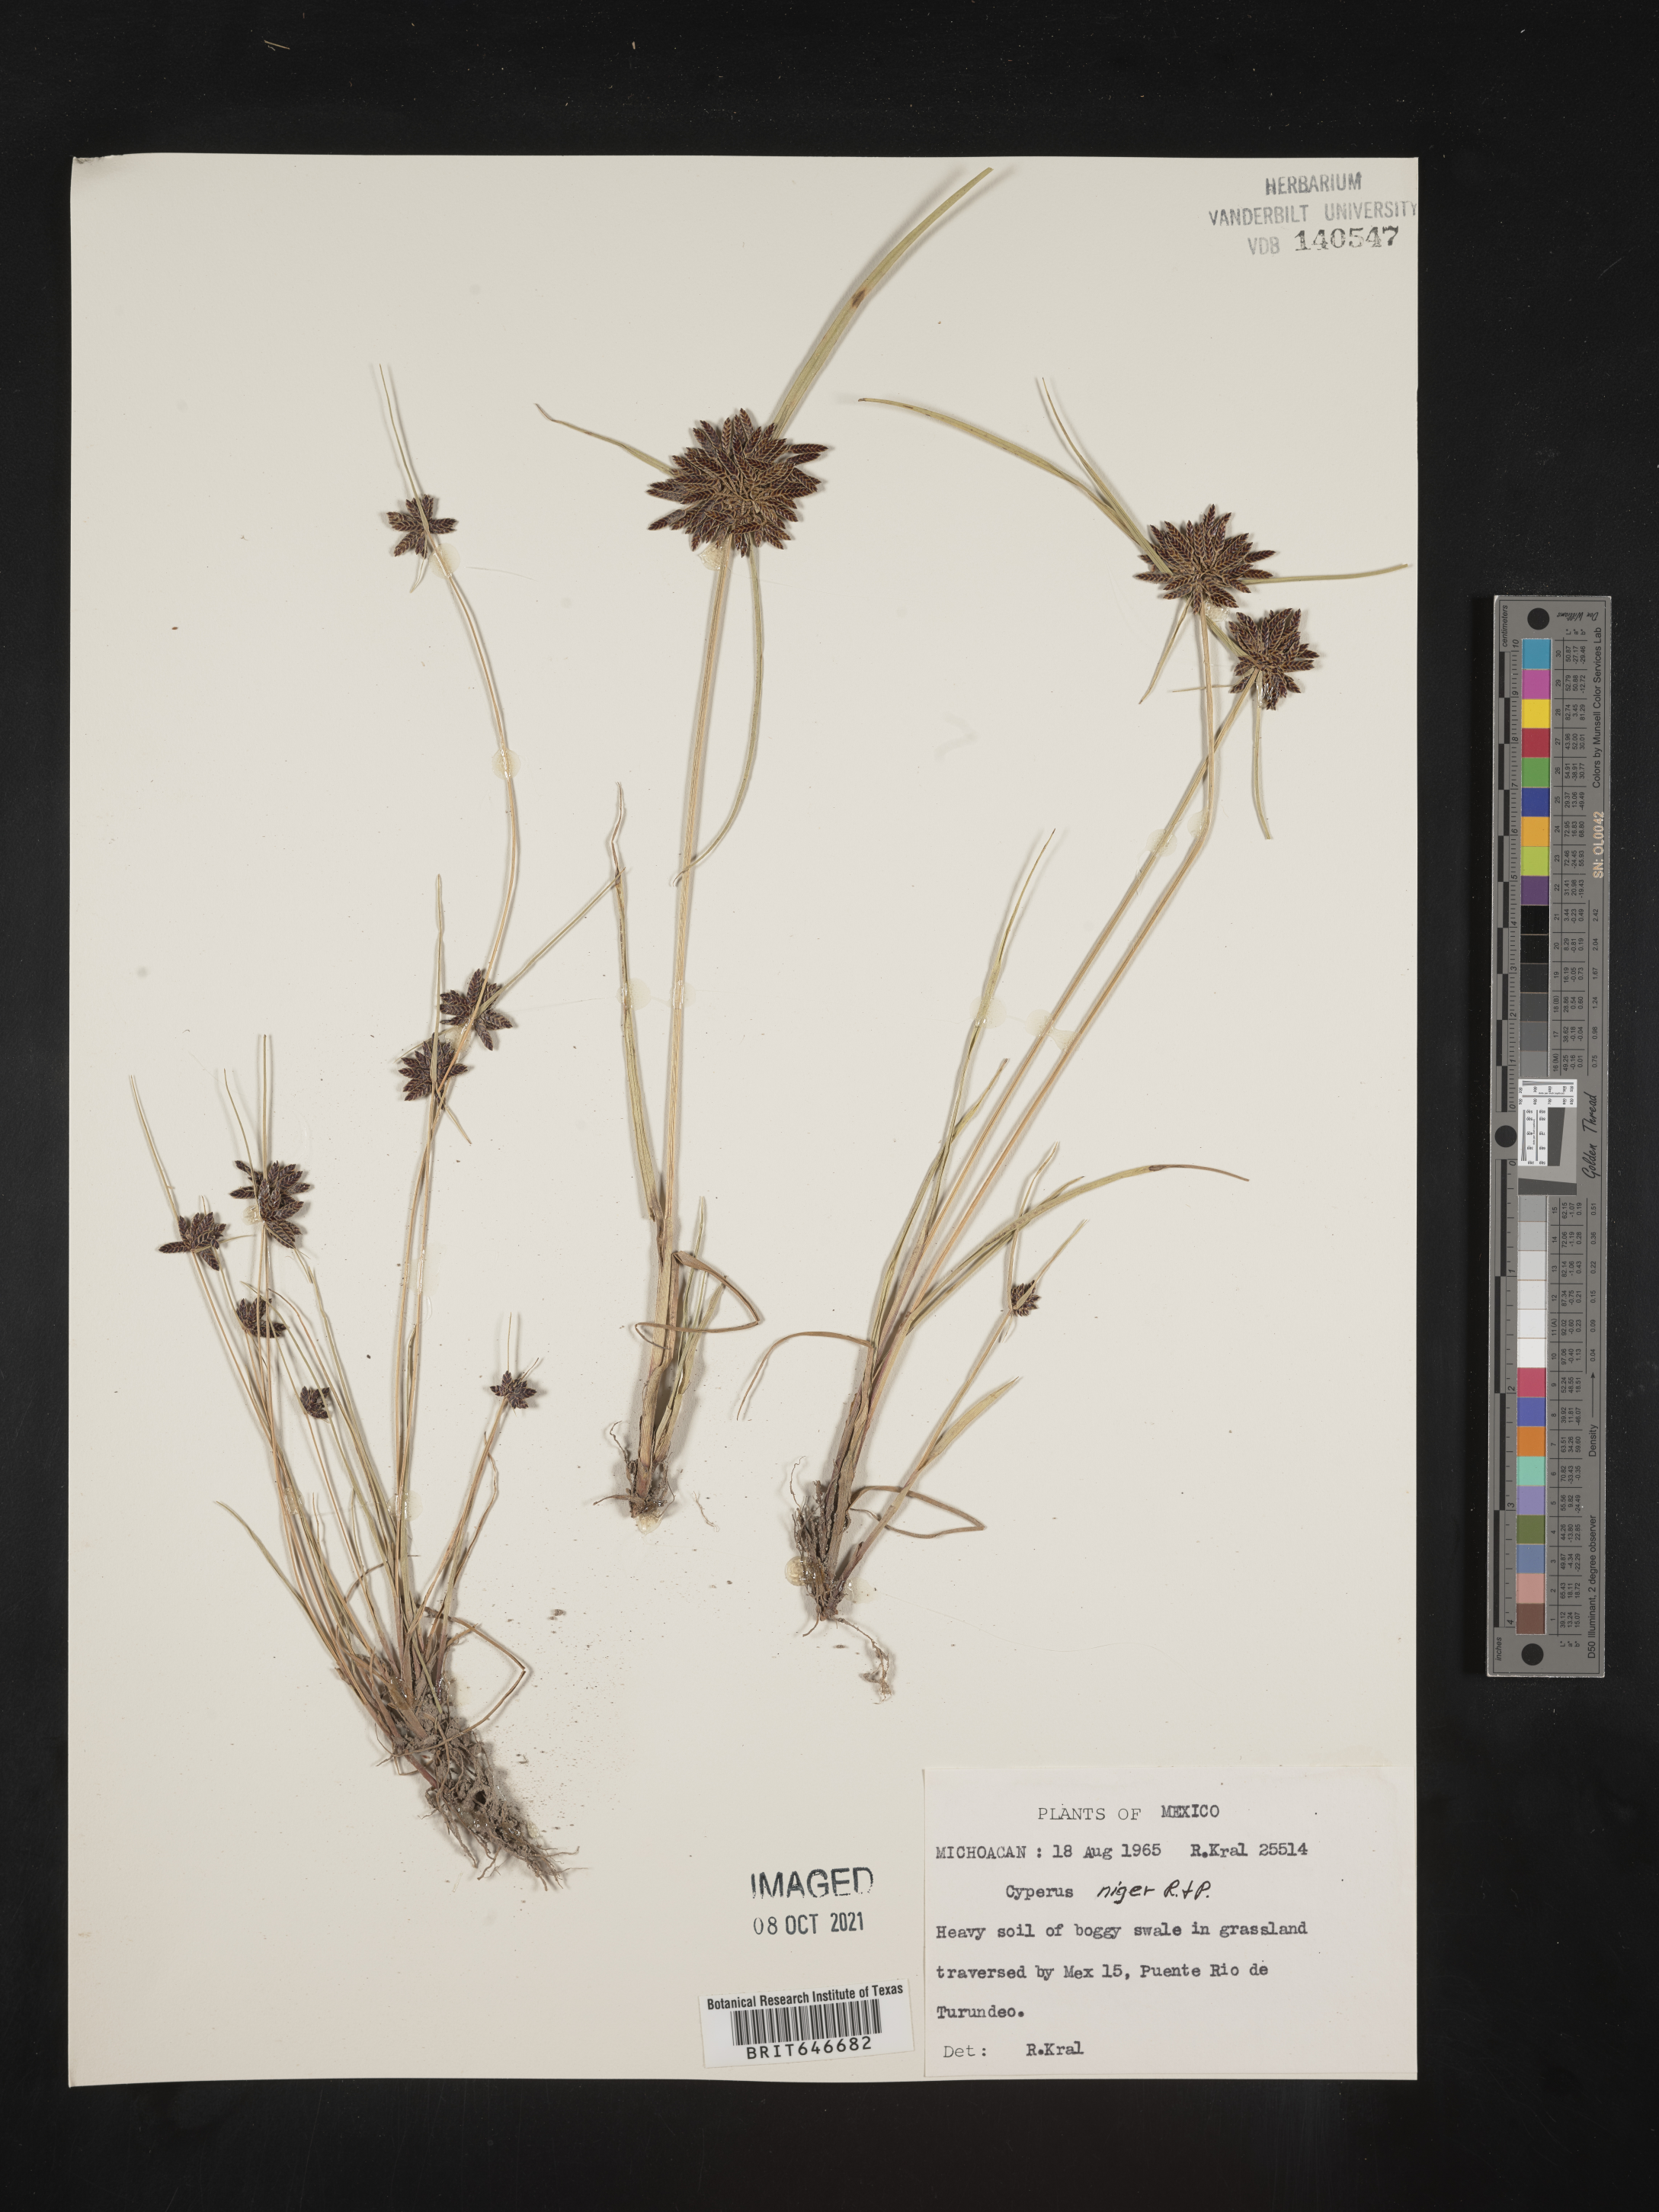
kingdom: Plantae
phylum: Tracheophyta
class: Liliopsida
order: Poales
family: Cyperaceae
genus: Cyperus
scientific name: Cyperus
